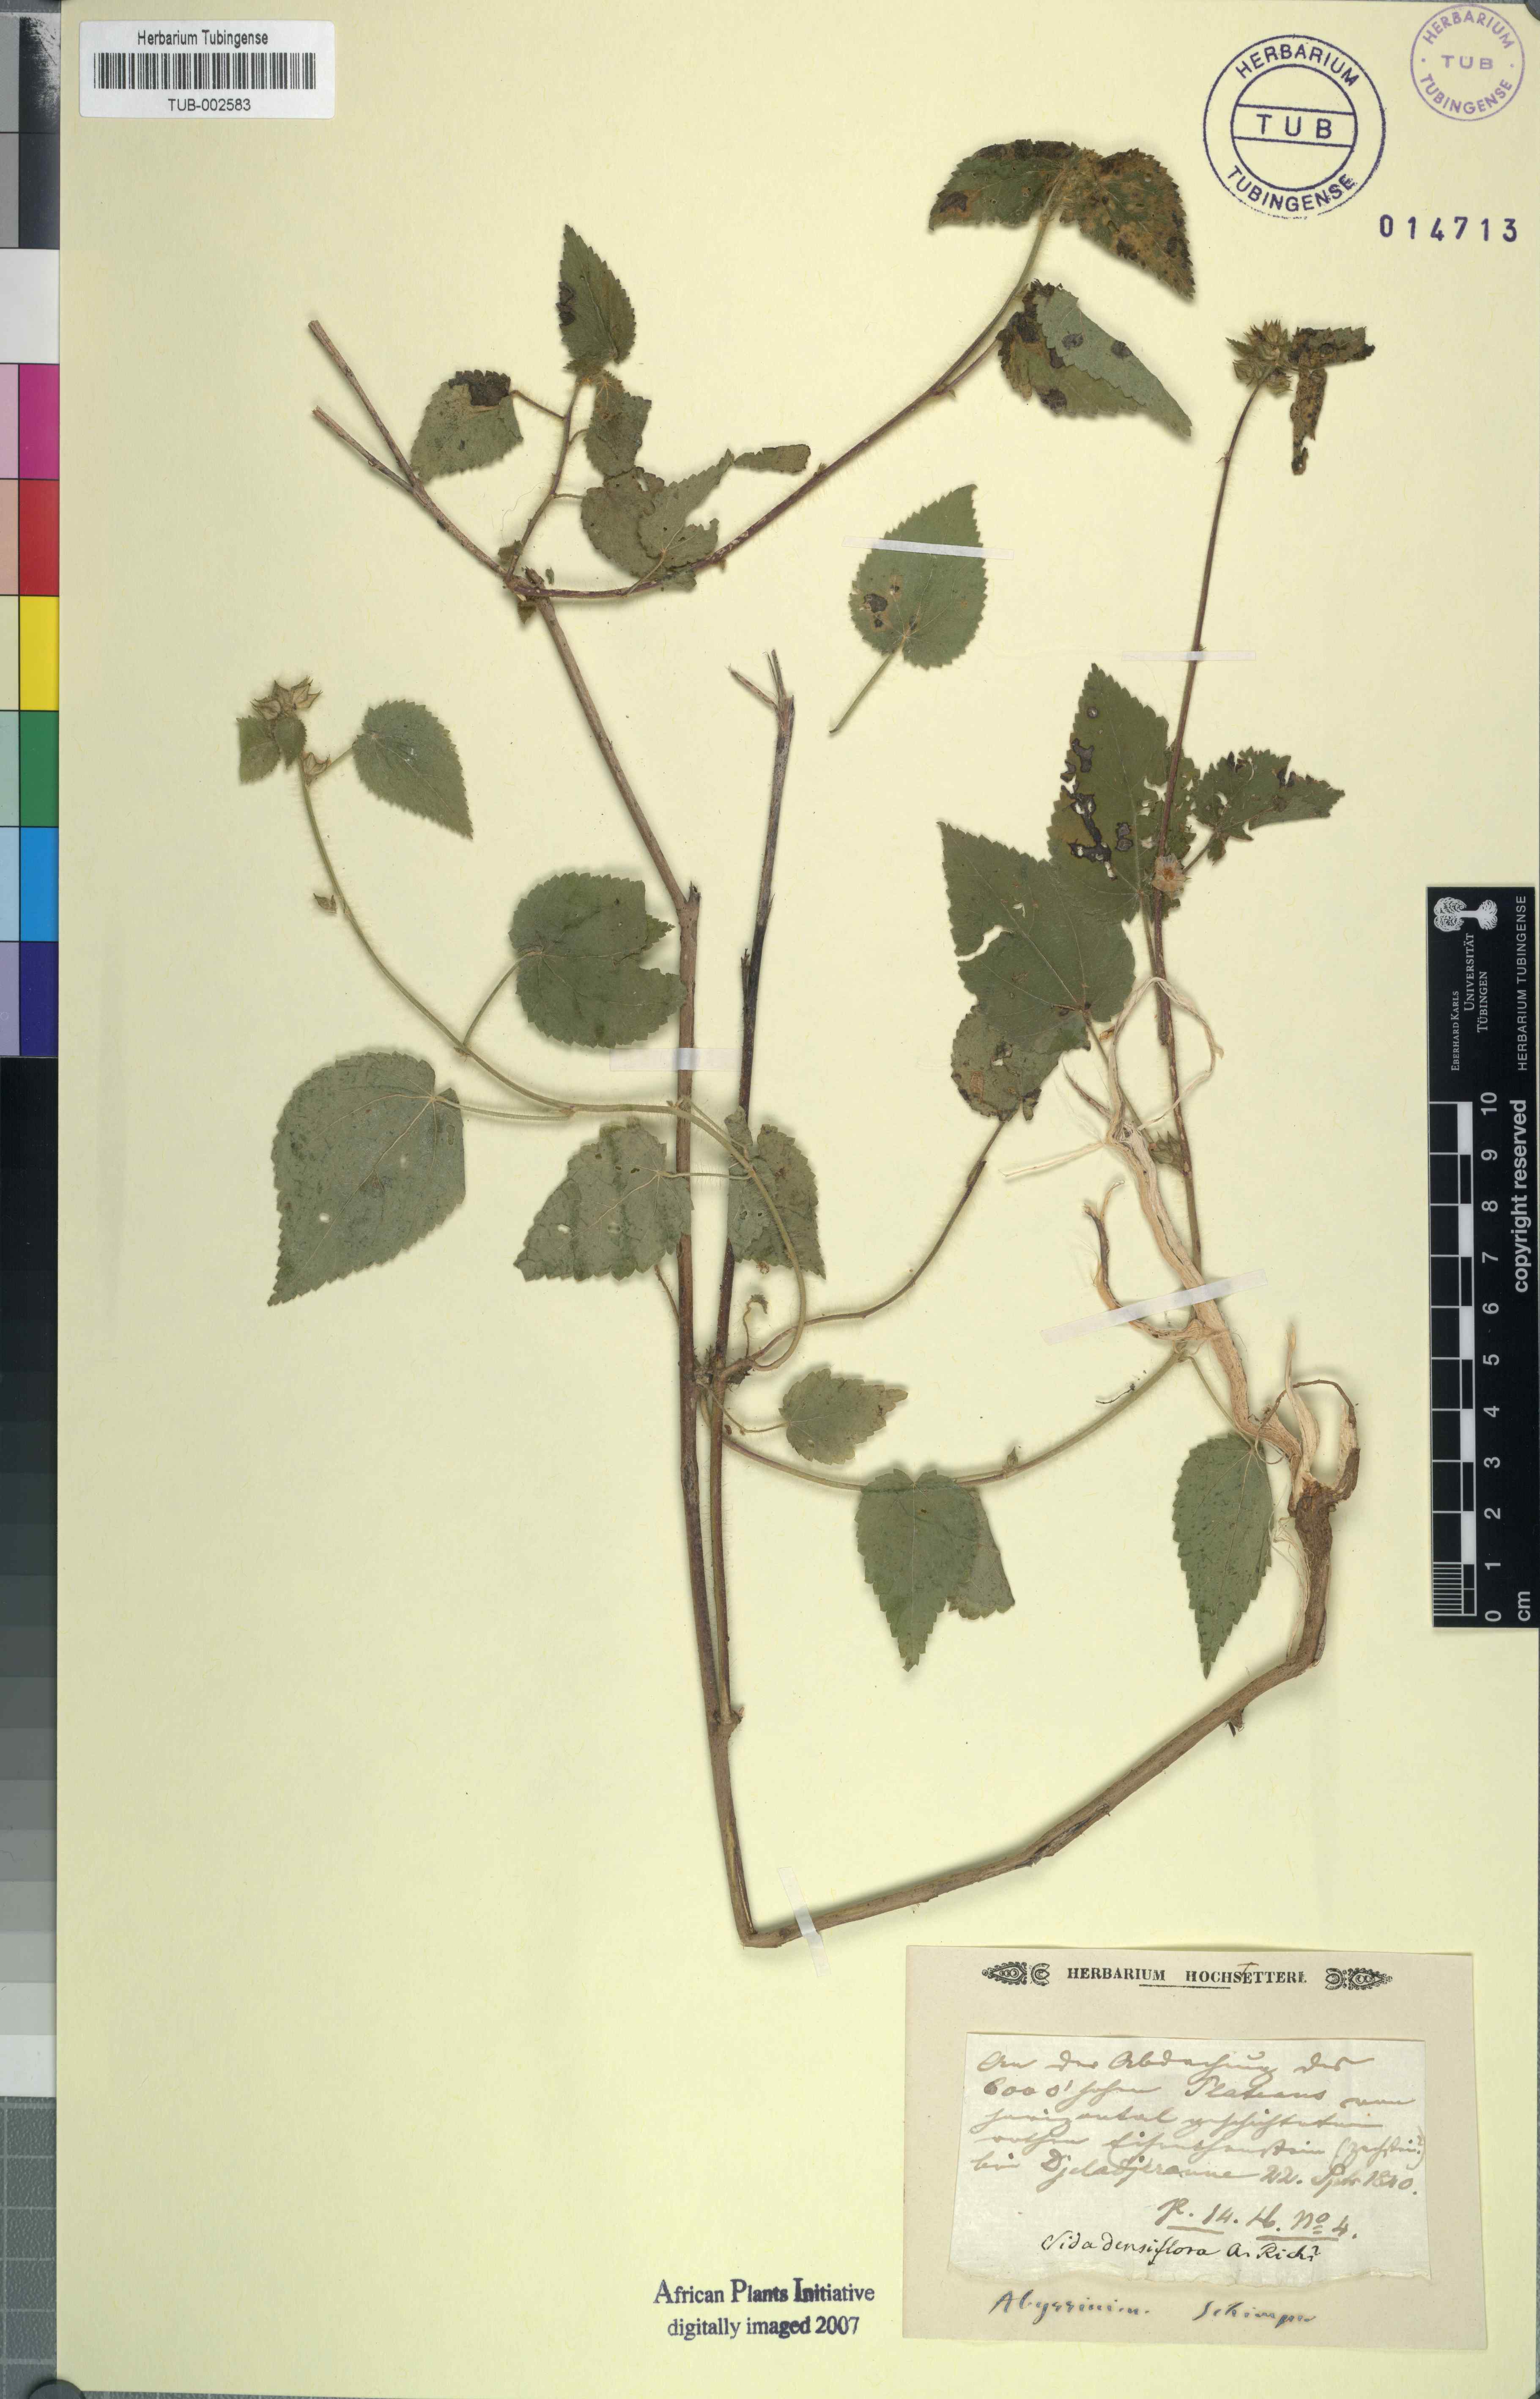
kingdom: Plantae
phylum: Tracheophyta
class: Magnoliopsida
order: Malvales
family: Malvaceae
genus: Sida
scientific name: Sida urens
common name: Tropical fanpetals
